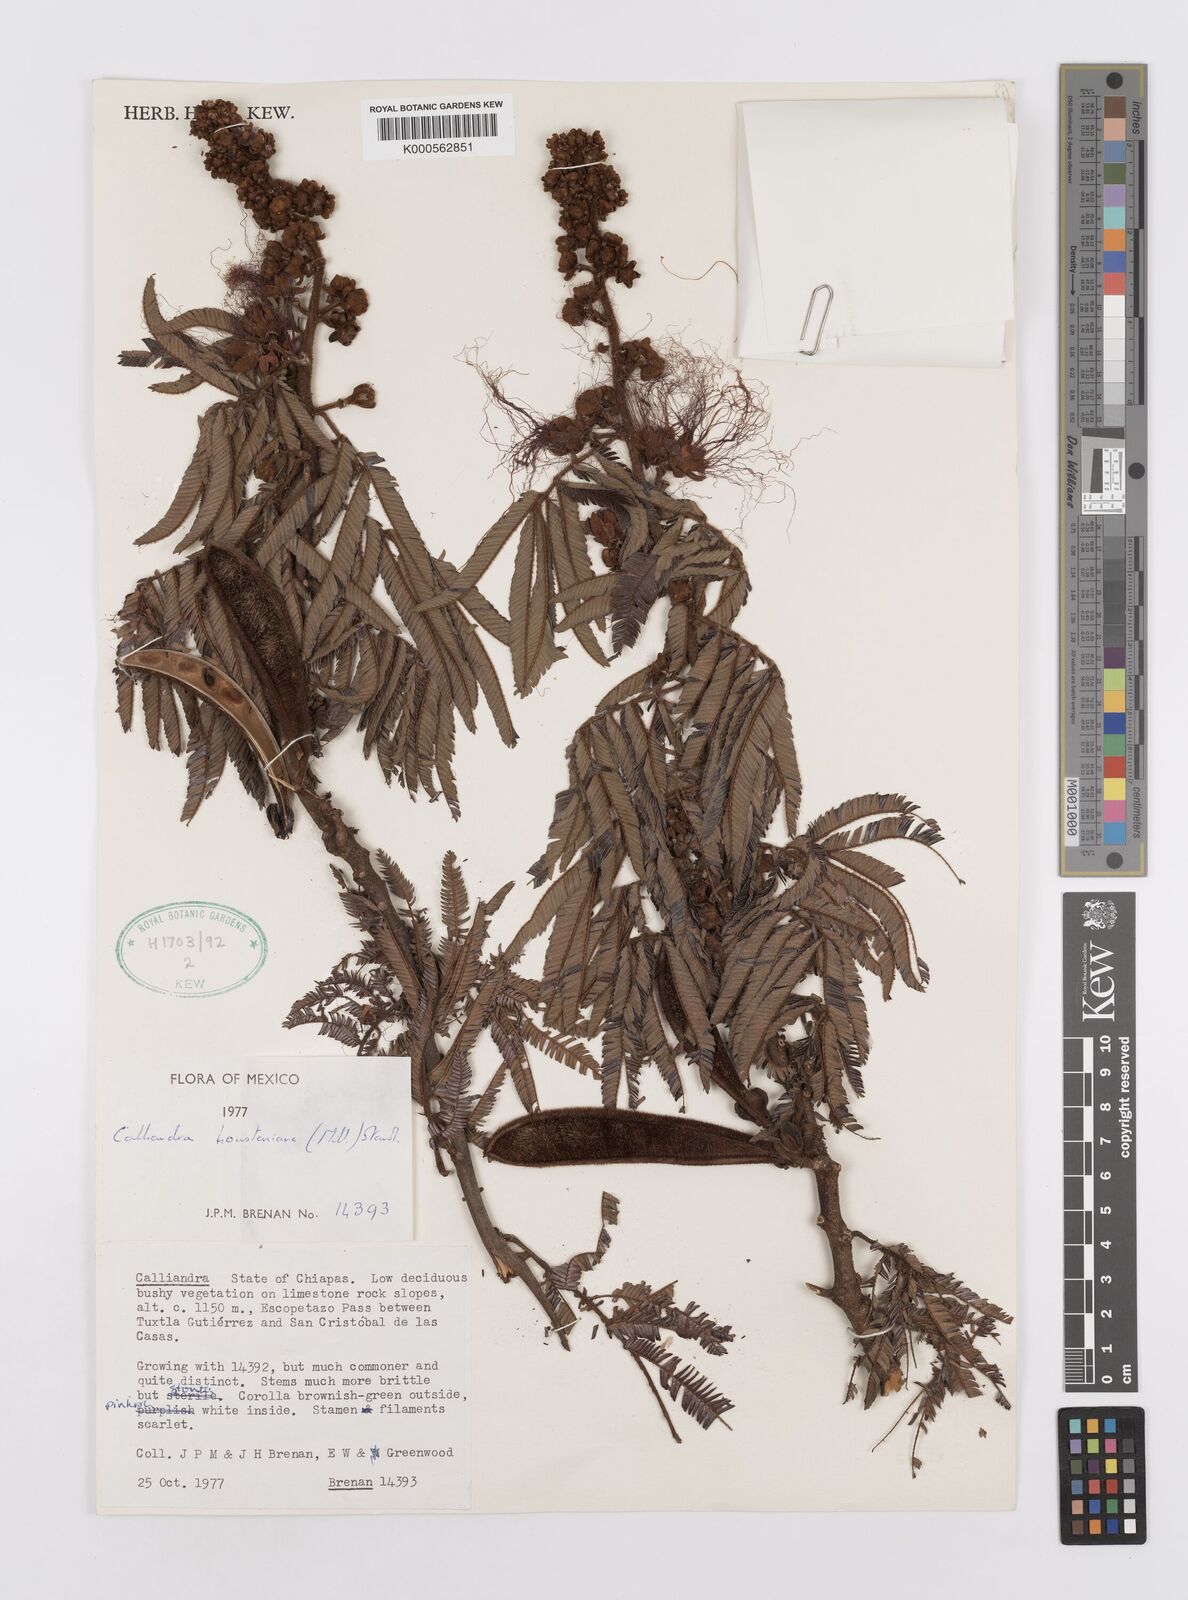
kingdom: Plantae
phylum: Tracheophyta
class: Magnoliopsida
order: Fabales
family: Fabaceae
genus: Calliandra
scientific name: Calliandra houstoniana
